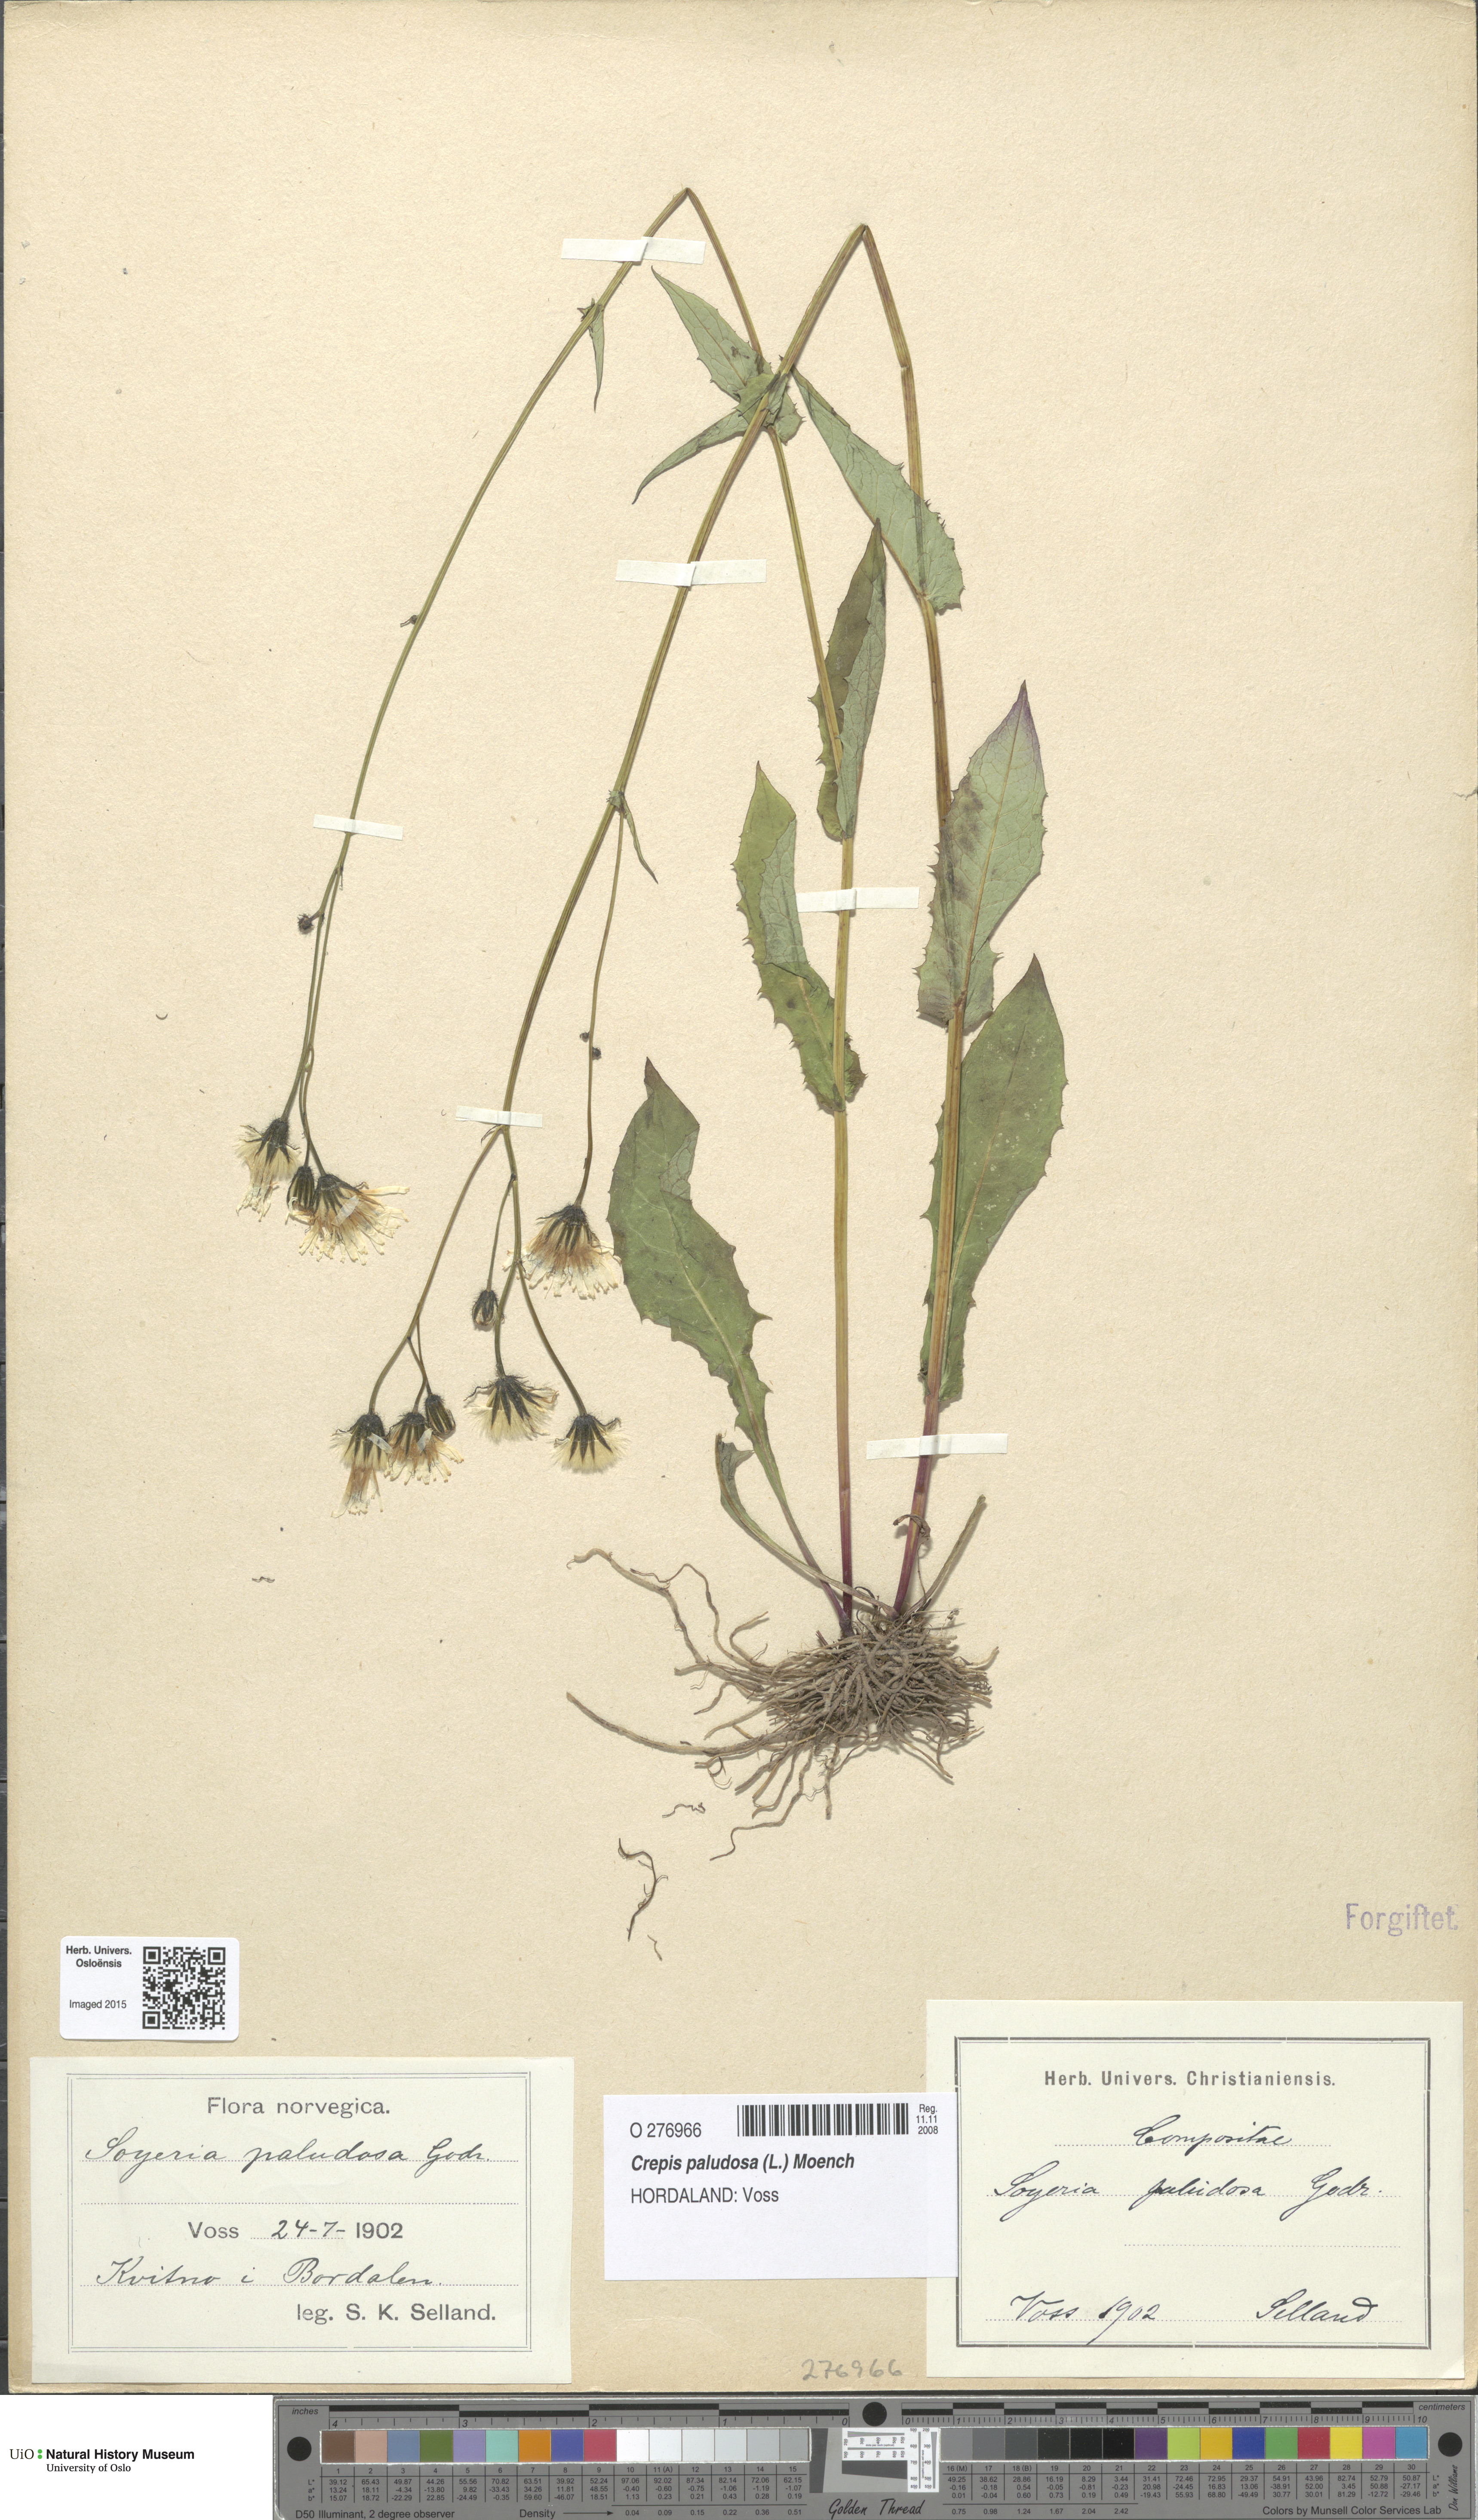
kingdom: Plantae
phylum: Tracheophyta
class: Magnoliopsida
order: Asterales
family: Asteraceae
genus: Crepis
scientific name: Crepis paludosa
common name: Marsh hawk's-beard
